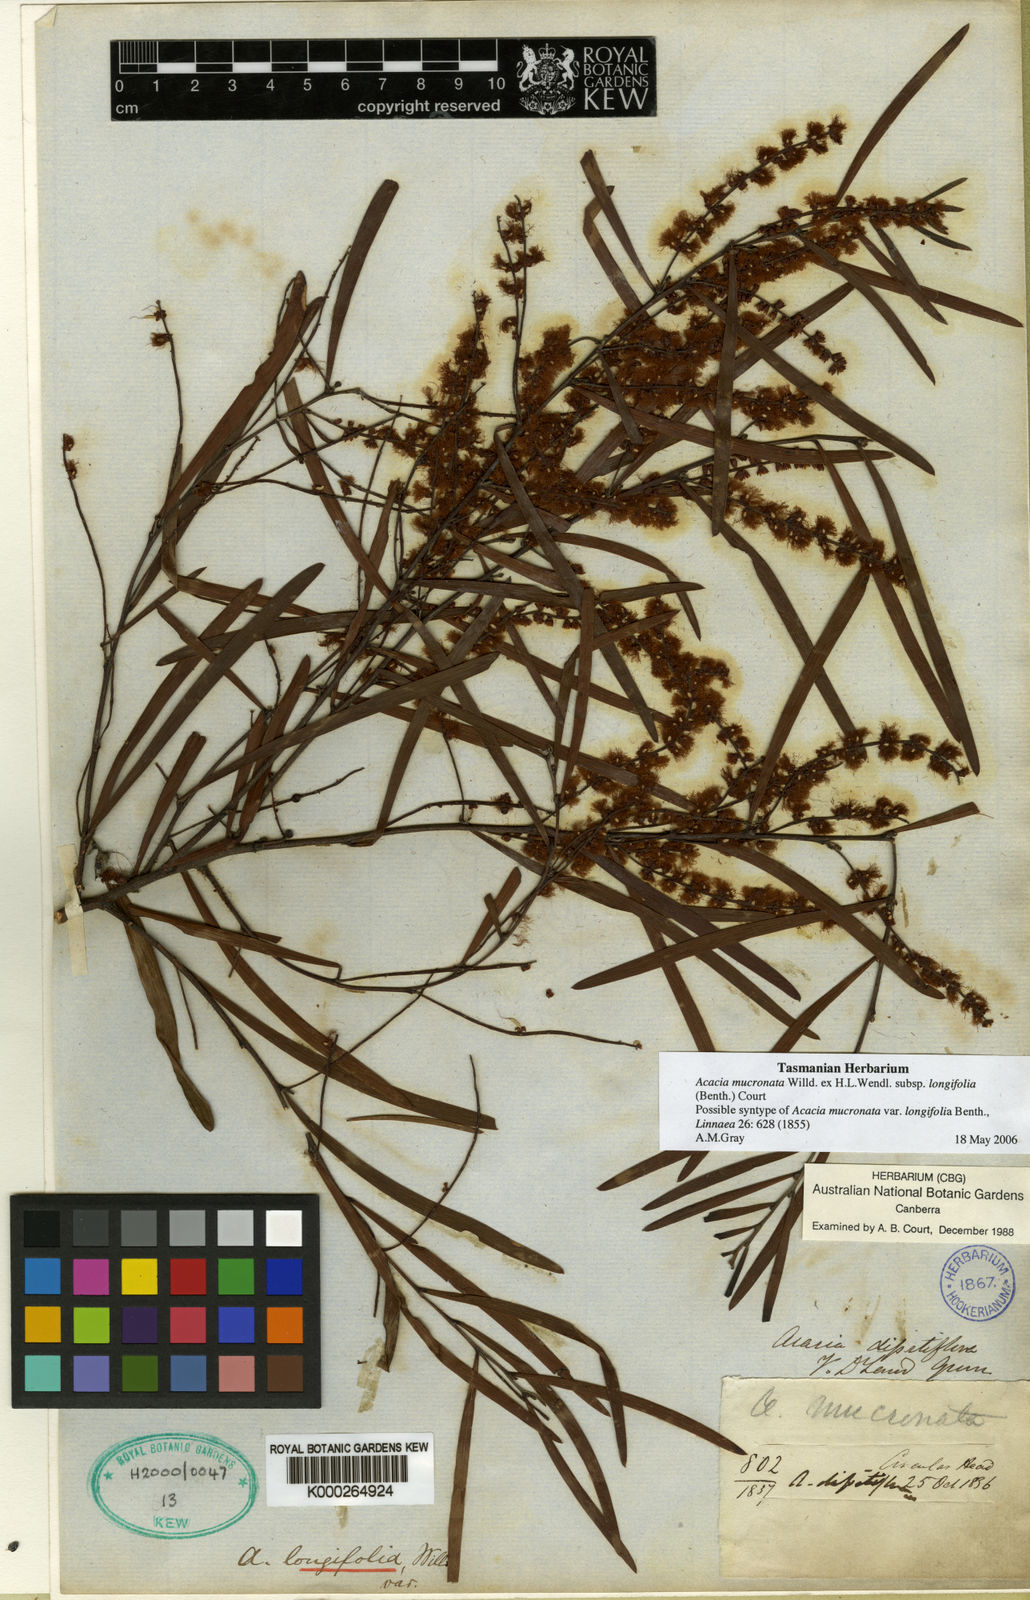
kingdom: Plantae
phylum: Tracheophyta
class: Magnoliopsida
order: Fabales
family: Fabaceae
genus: Acacia
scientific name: Acacia
